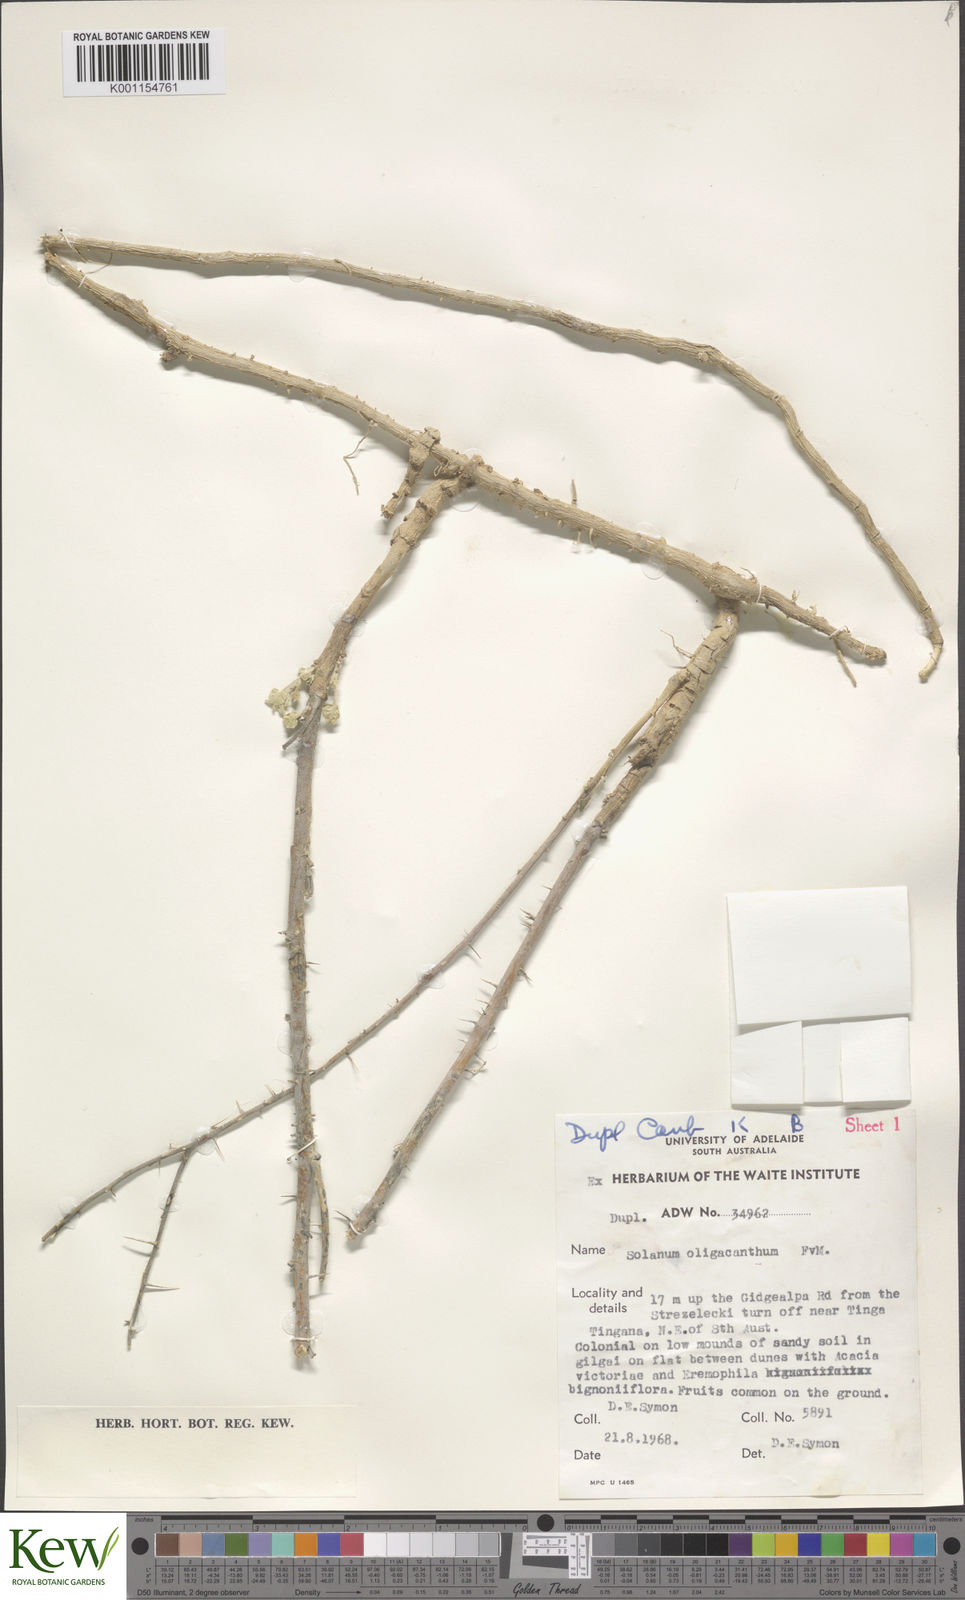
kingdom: Plantae
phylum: Tracheophyta
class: Magnoliopsida
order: Solanales
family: Solanaceae
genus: Solanum
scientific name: Solanum oligacanthum
